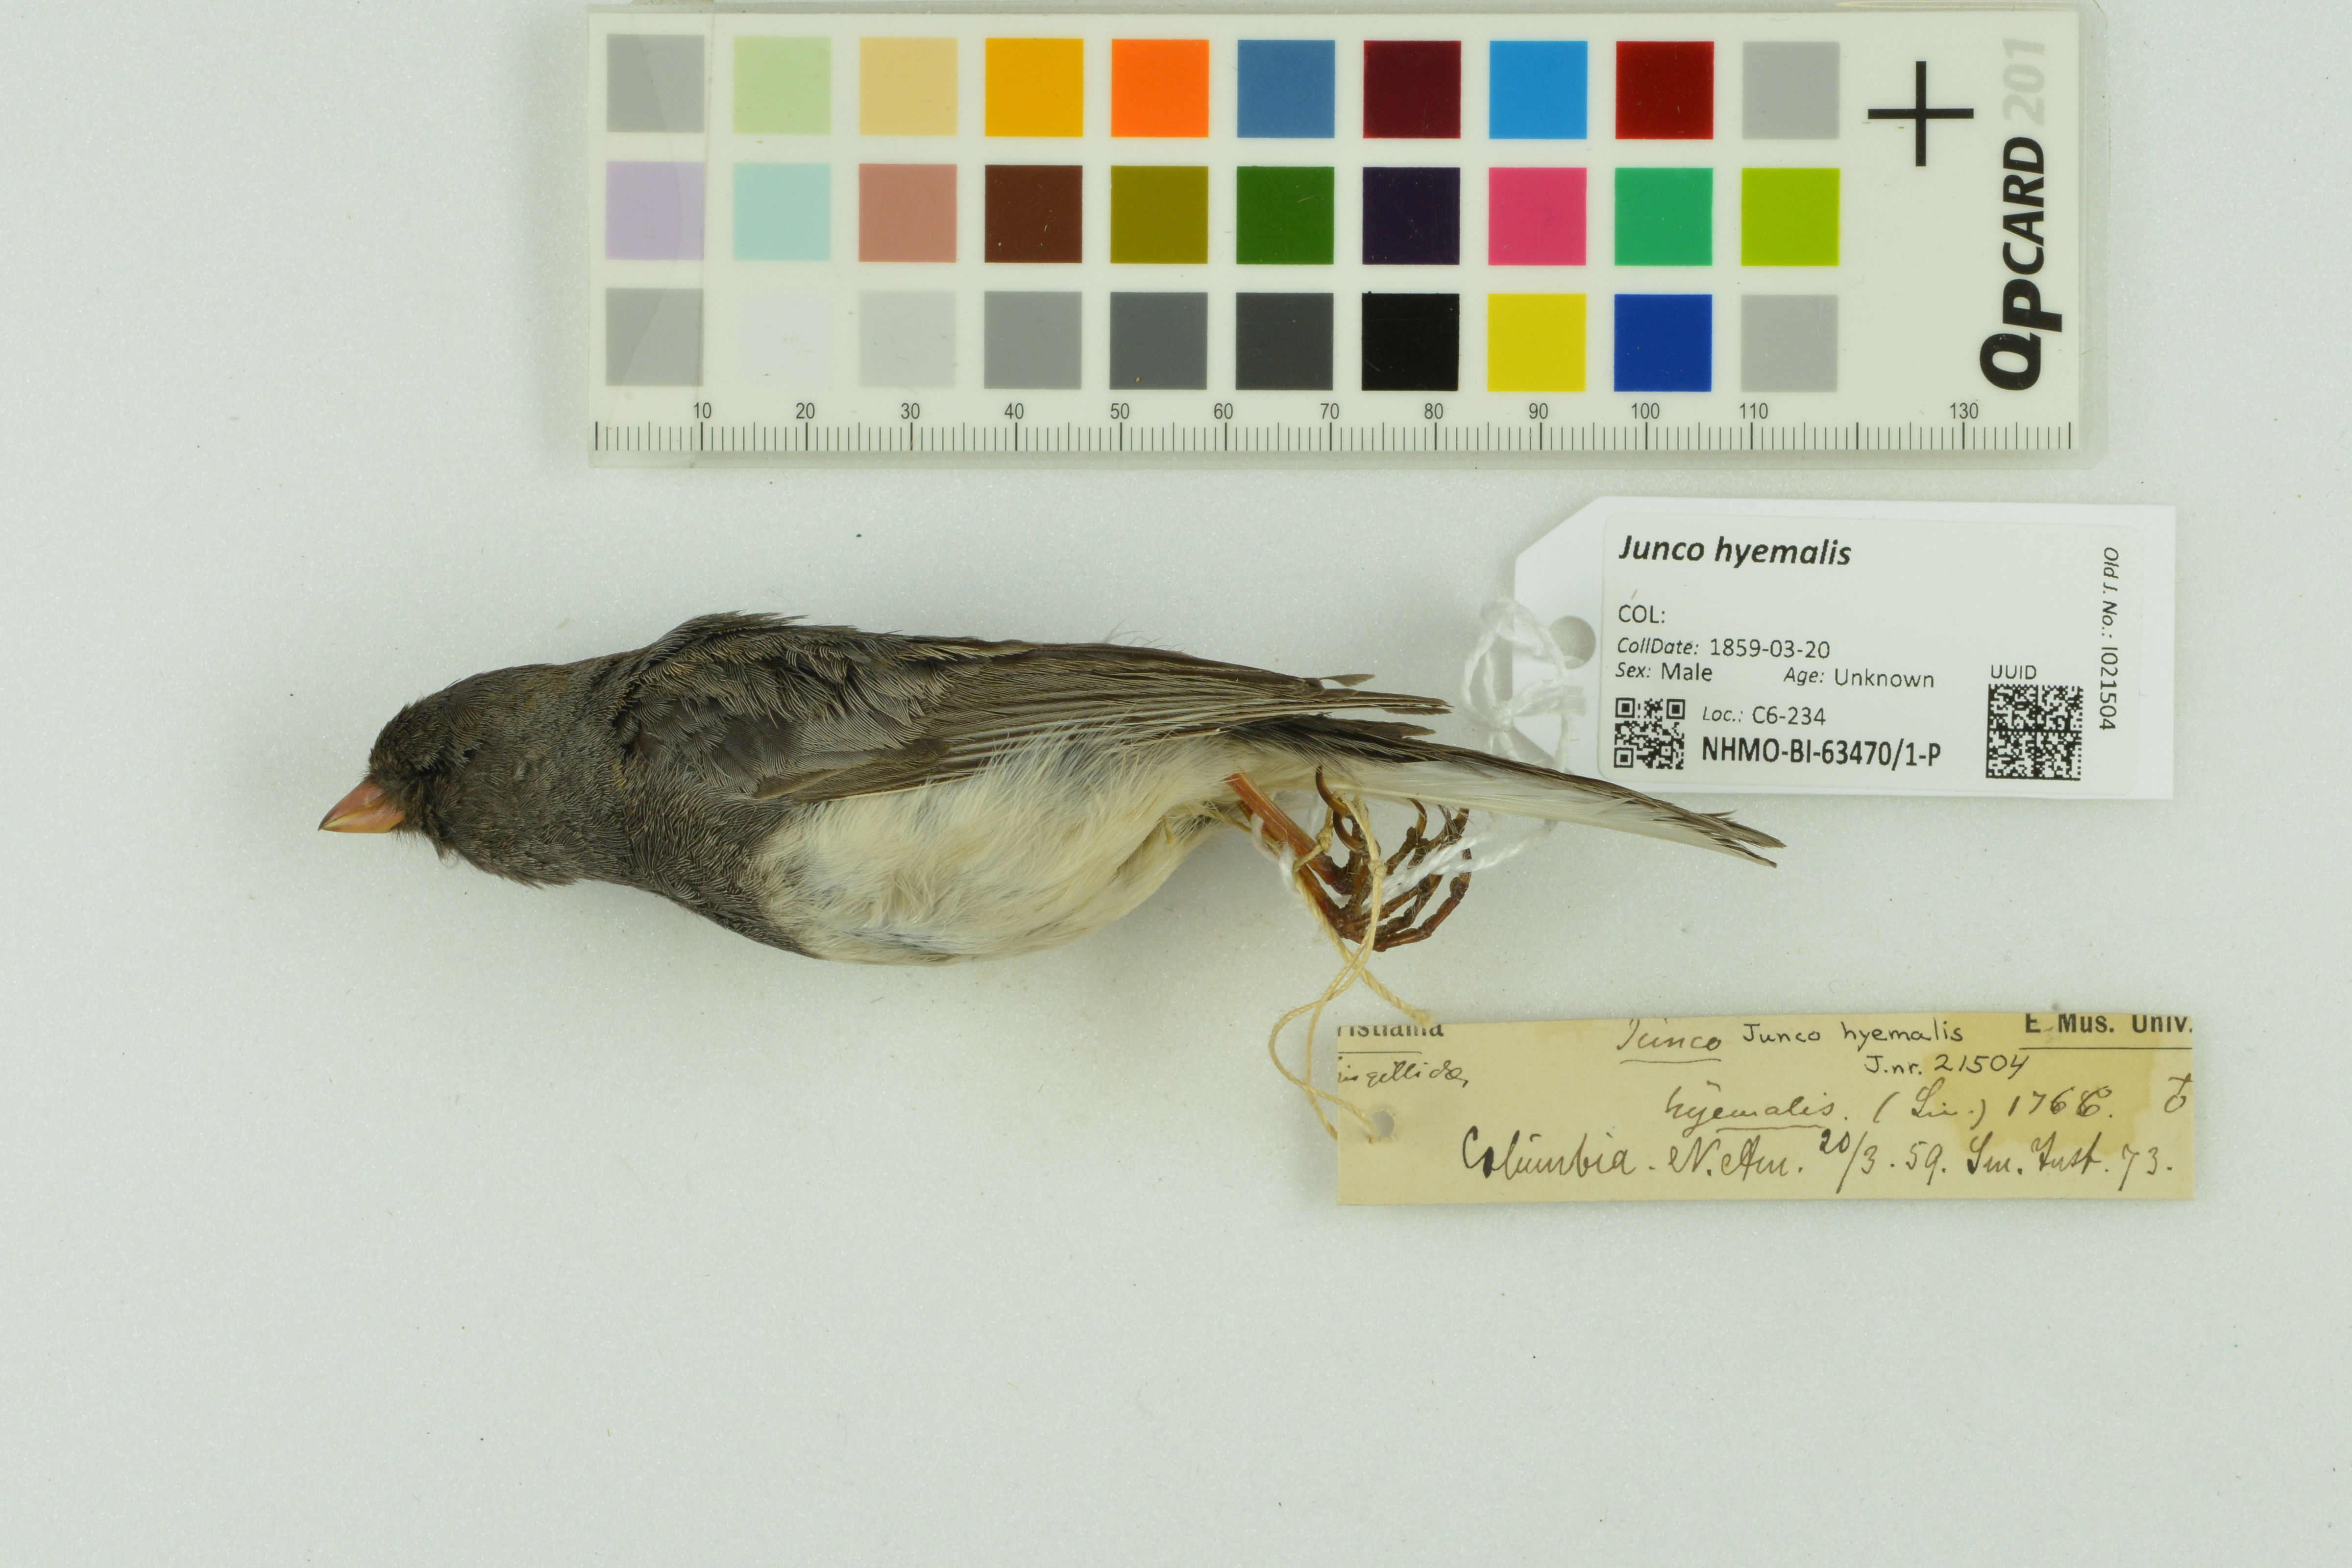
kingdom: Animalia
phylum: Chordata
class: Aves
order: Passeriformes
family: Passerellidae
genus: Junco
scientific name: Junco hyemalis
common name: Dark-eyed junco
